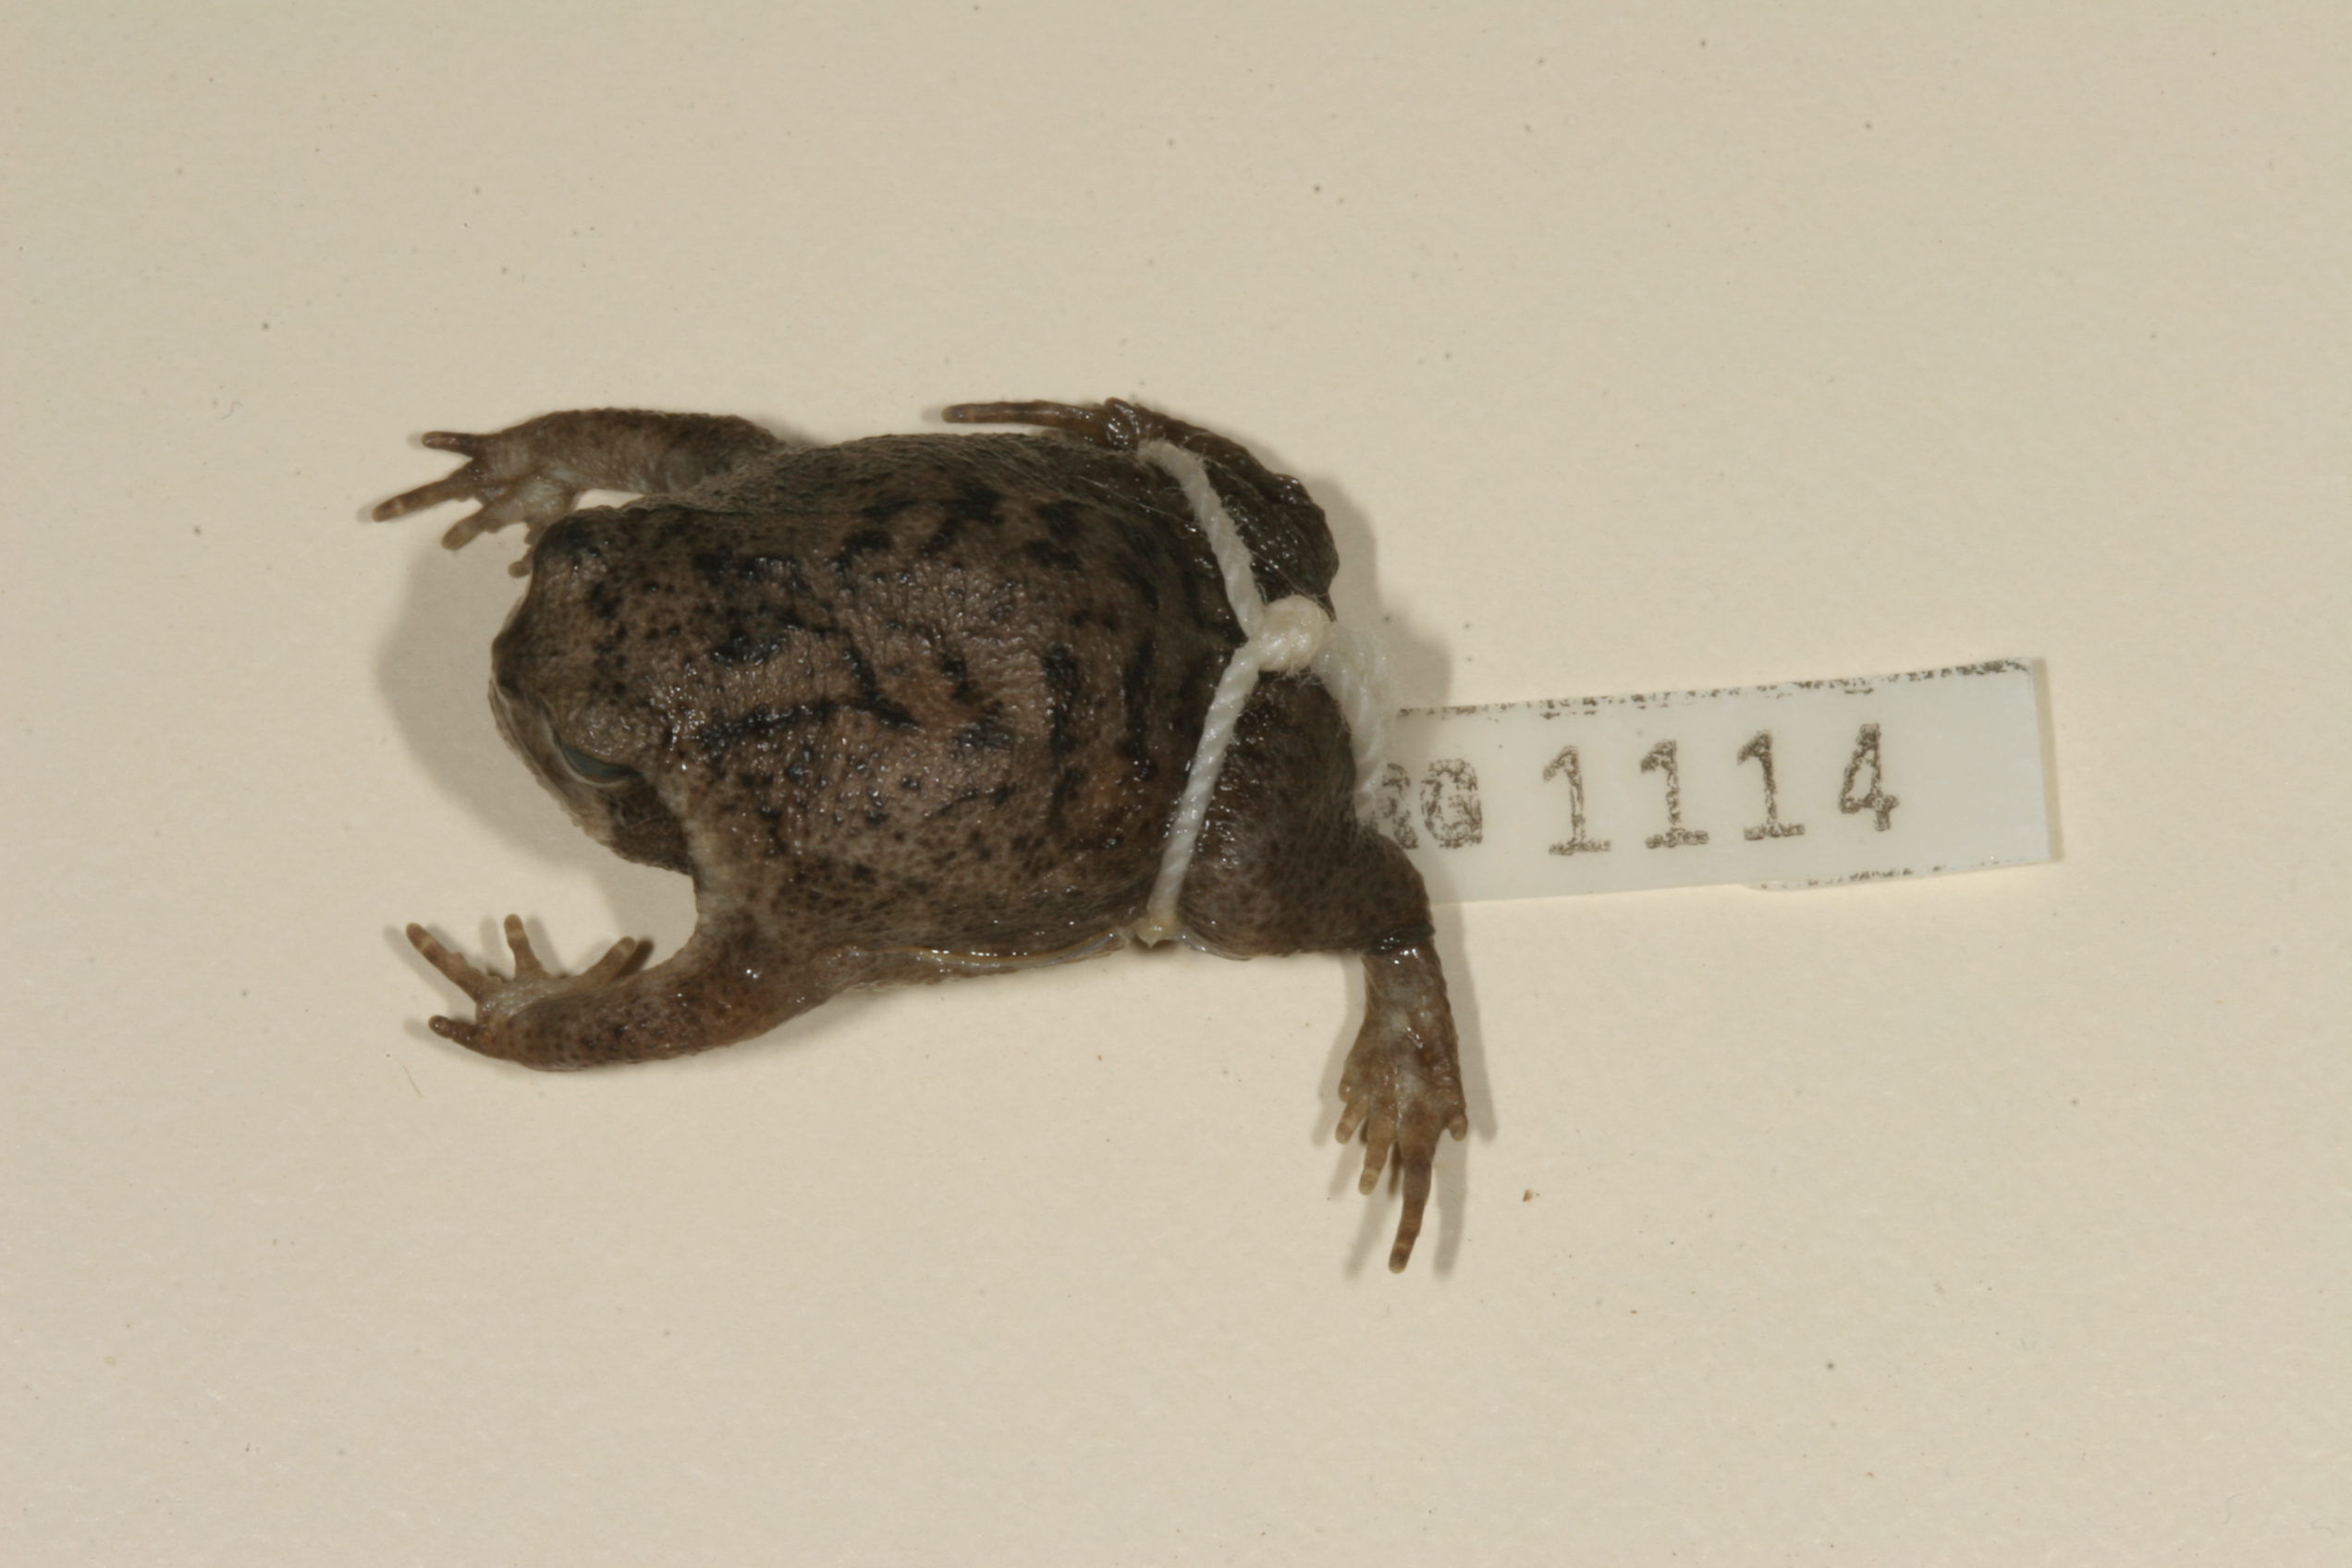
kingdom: Animalia
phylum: Chordata
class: Amphibia
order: Anura
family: Brevicipitidae
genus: Breviceps
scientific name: Breviceps sylvestris
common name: Northern forest rain frog
